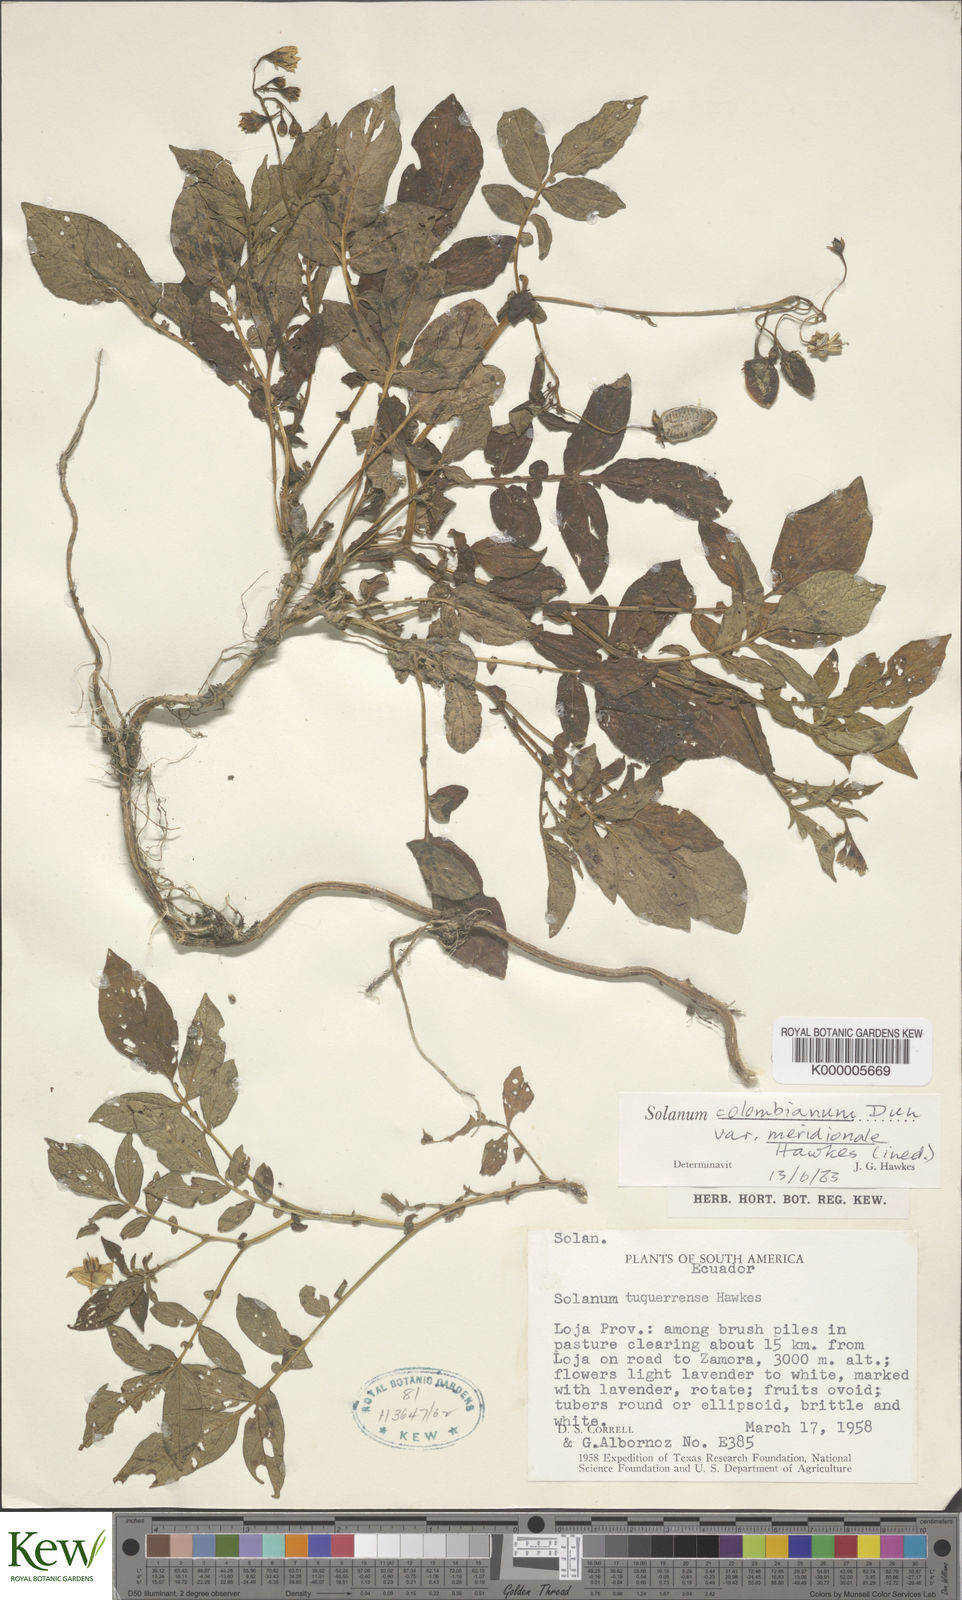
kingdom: Plantae
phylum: Tracheophyta
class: Magnoliopsida
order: Solanales
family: Solanaceae
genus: Solanum
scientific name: Solanum andreanum
